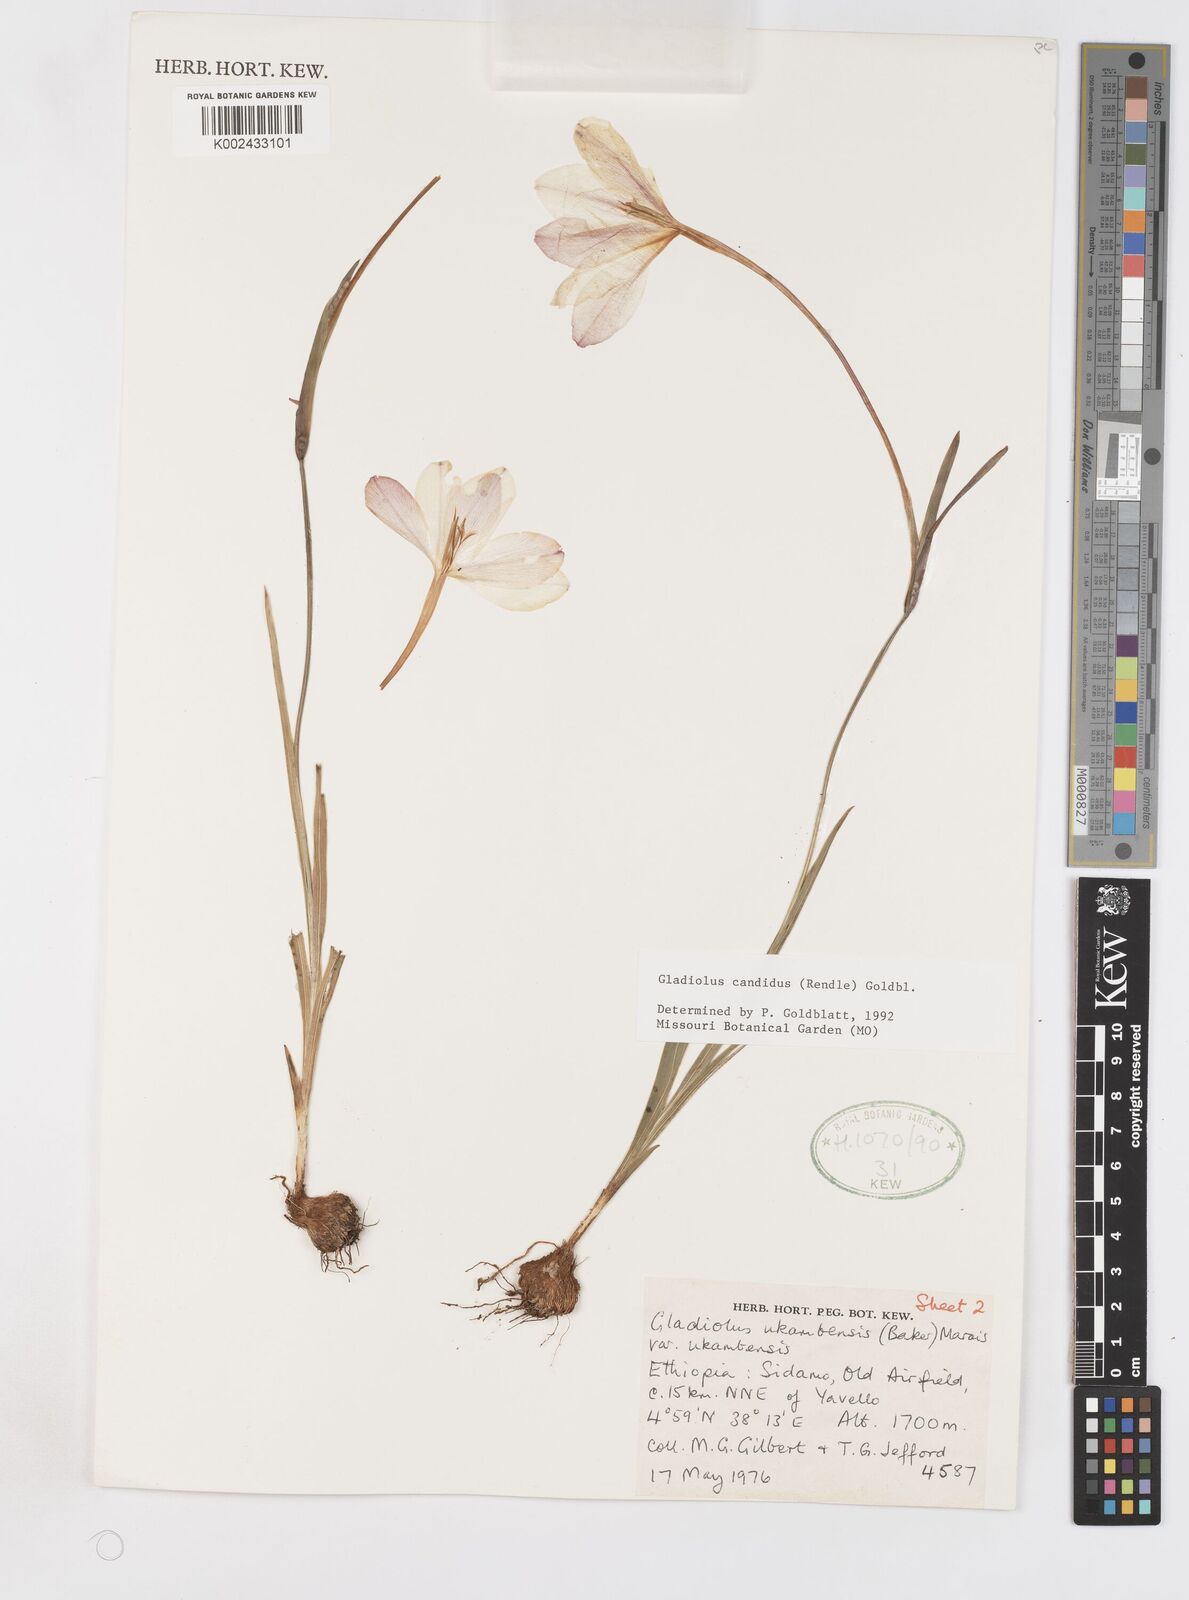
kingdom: Plantae
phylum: Tracheophyta
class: Liliopsida
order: Asparagales
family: Iridaceae
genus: Gladiolus
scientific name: Gladiolus candidus
